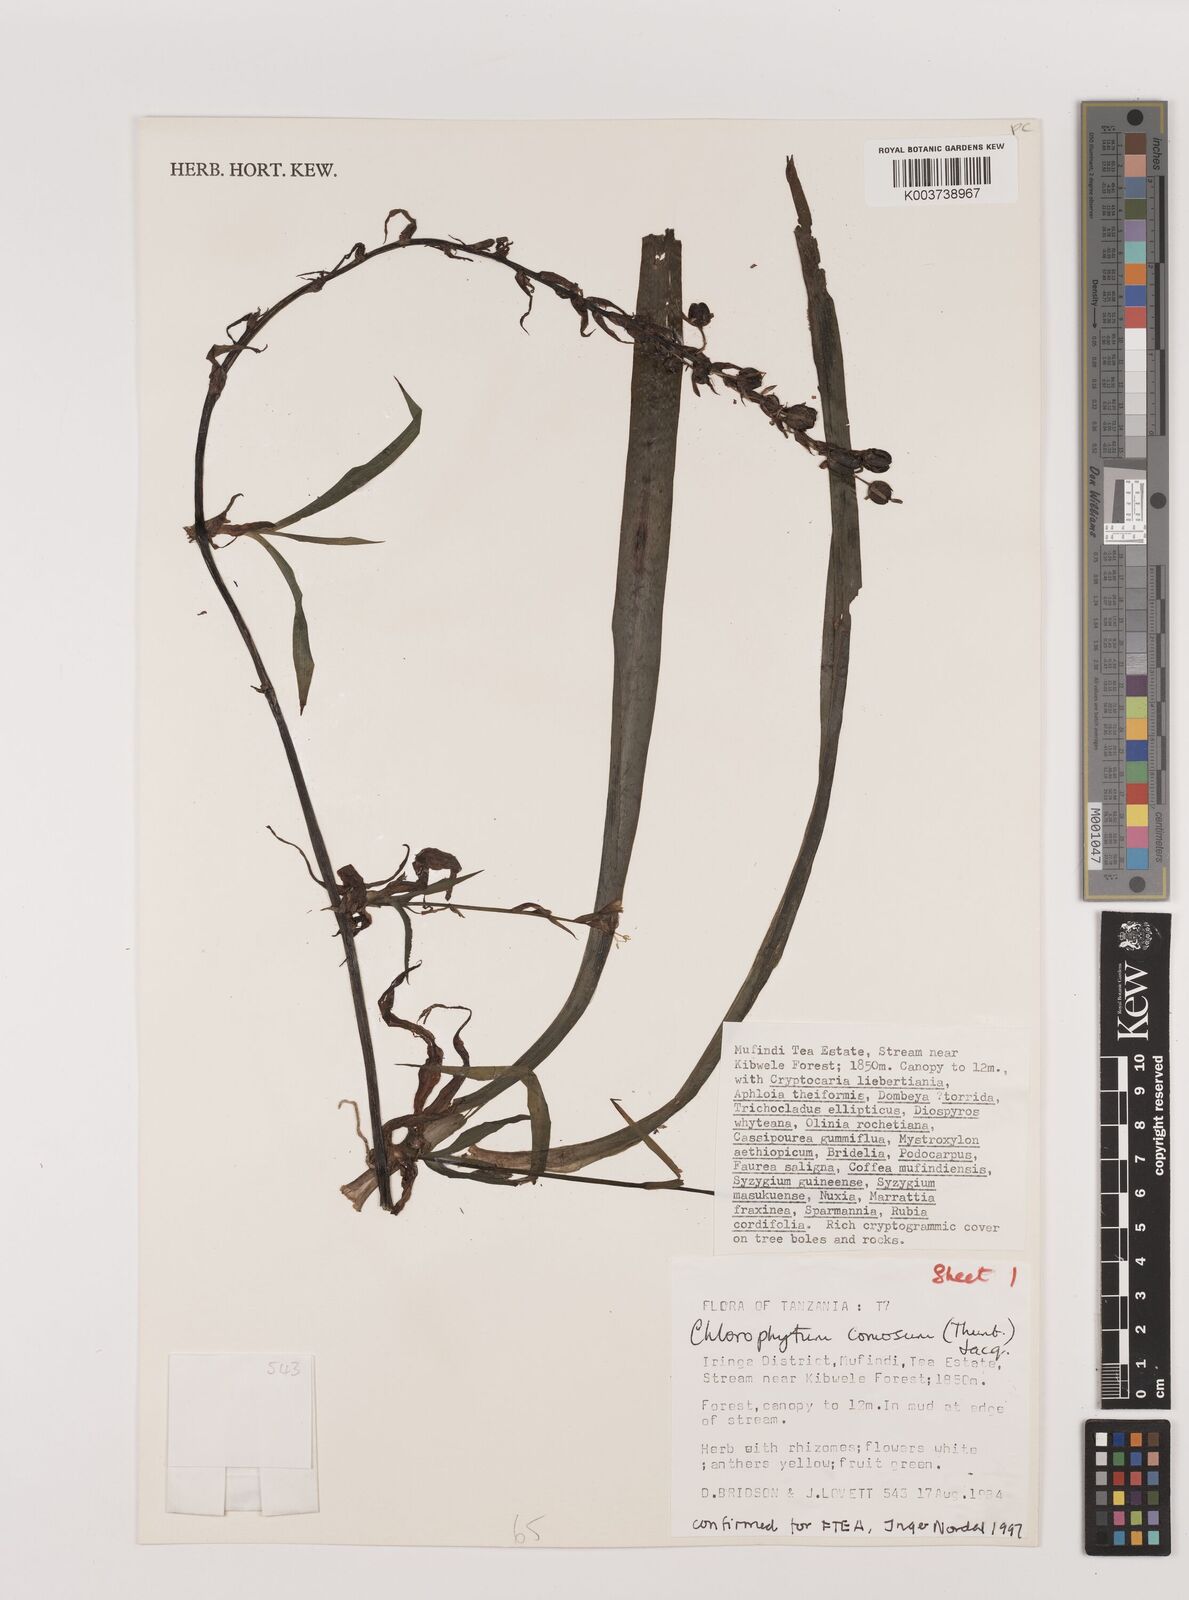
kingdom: Plantae
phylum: Tracheophyta
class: Liliopsida
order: Asparagales
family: Asparagaceae
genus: Chlorophytum
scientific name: Chlorophytum comosum
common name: Spider plant
